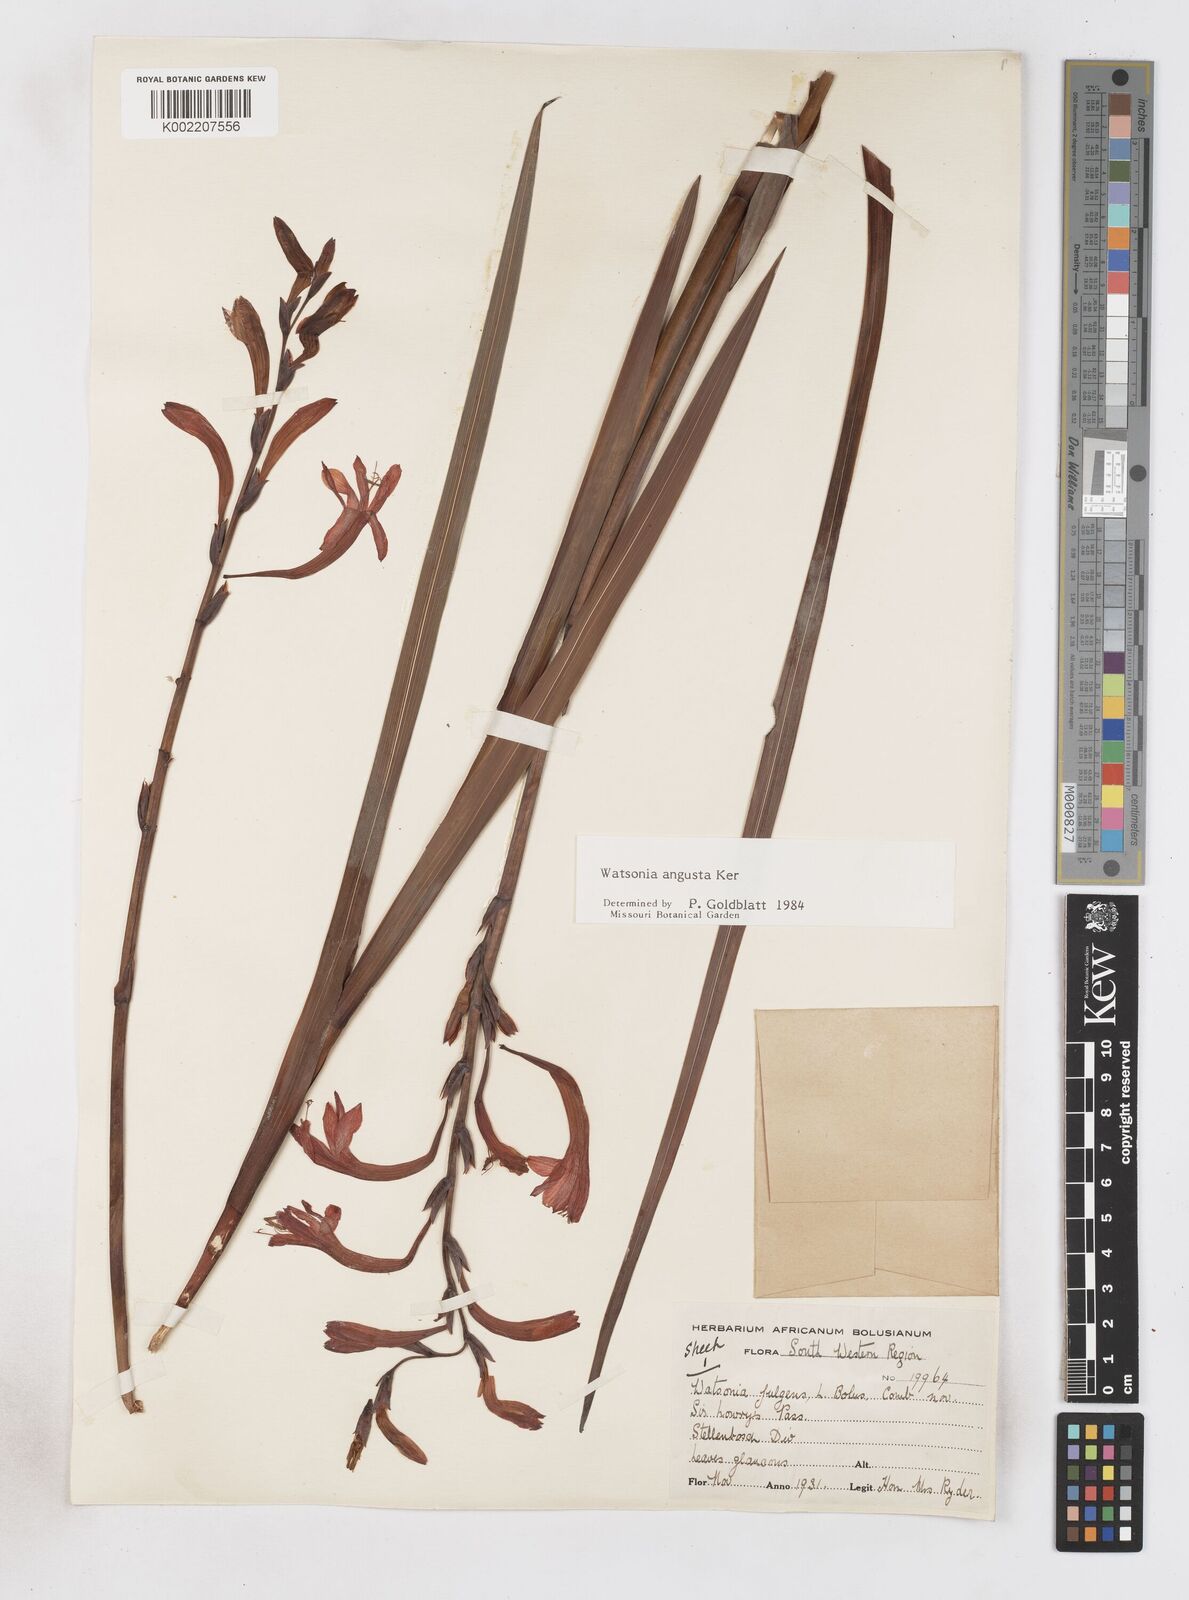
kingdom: Plantae
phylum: Tracheophyta
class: Liliopsida
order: Asparagales
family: Iridaceae
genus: Watsonia
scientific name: Watsonia angusta
